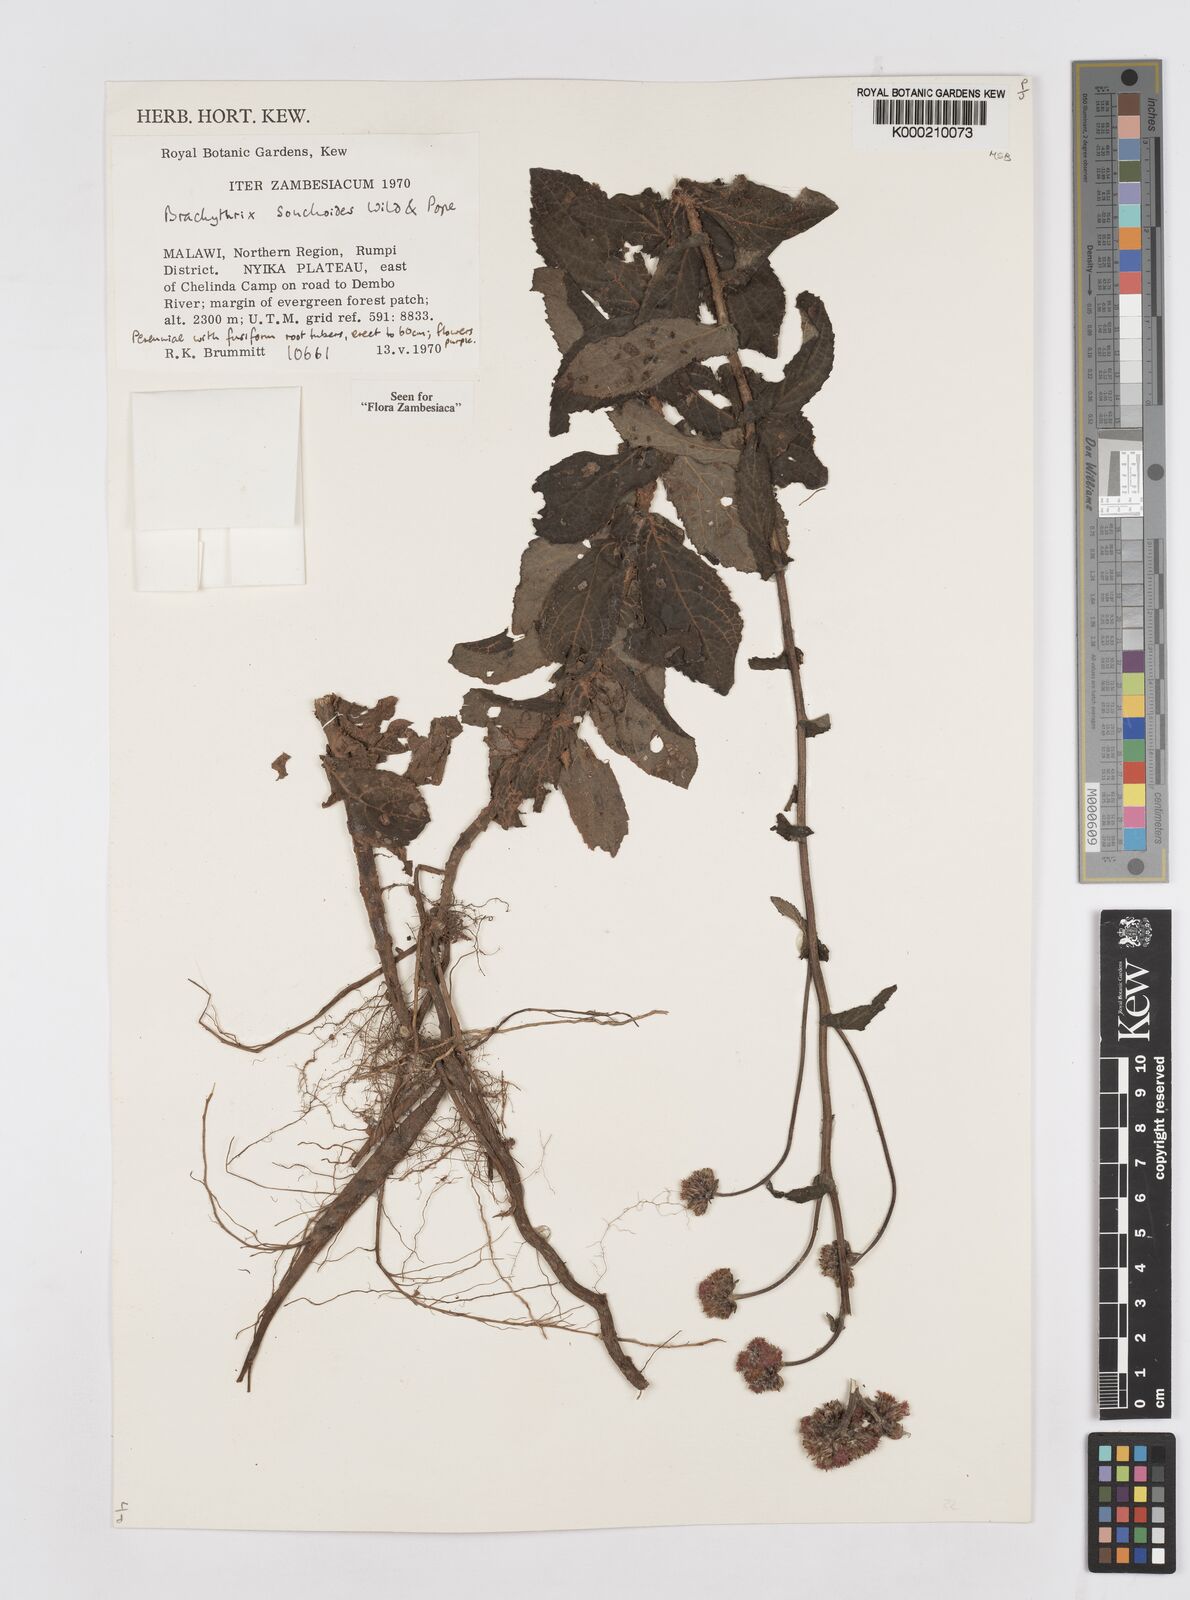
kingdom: Plantae
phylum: Tracheophyta
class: Magnoliopsida
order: Asterales
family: Asteraceae
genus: Brachythrix
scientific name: Brachythrix sonchoides
